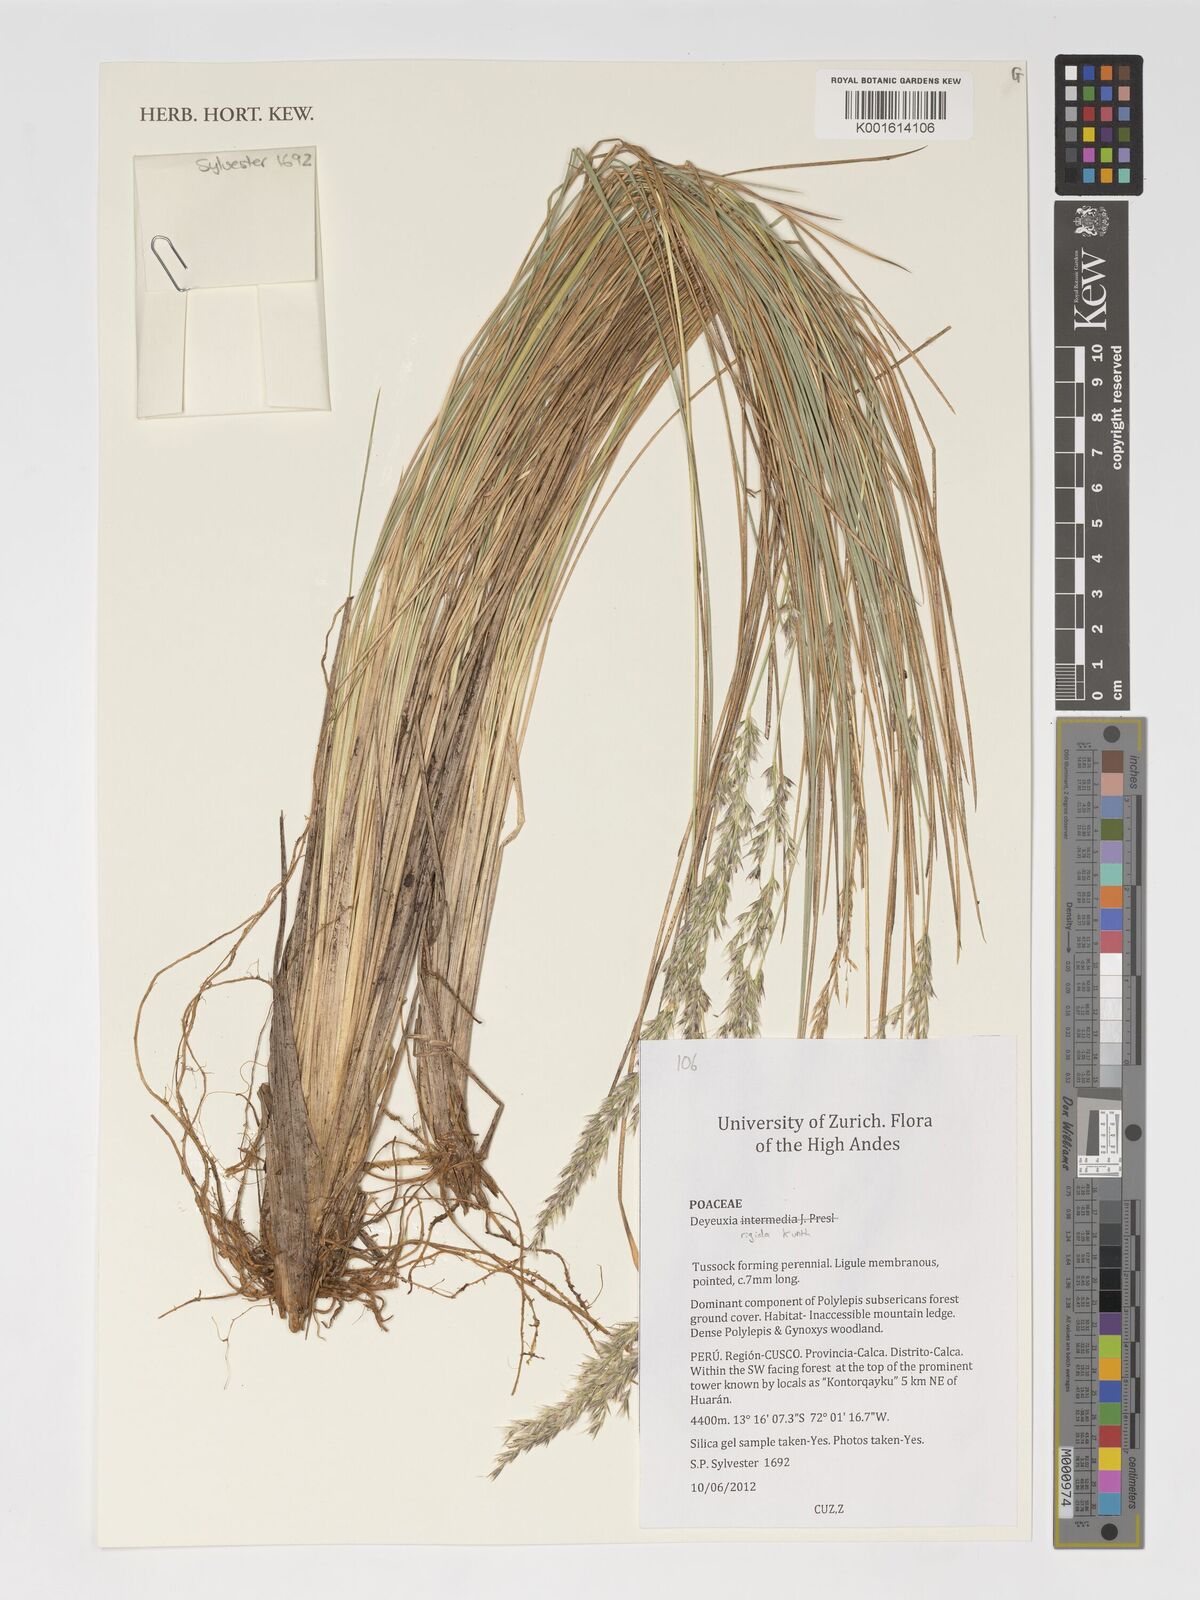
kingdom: Plantae
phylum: Tracheophyta
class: Liliopsida
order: Poales
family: Poaceae
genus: Cinnagrostis
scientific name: Cinnagrostis rigida
